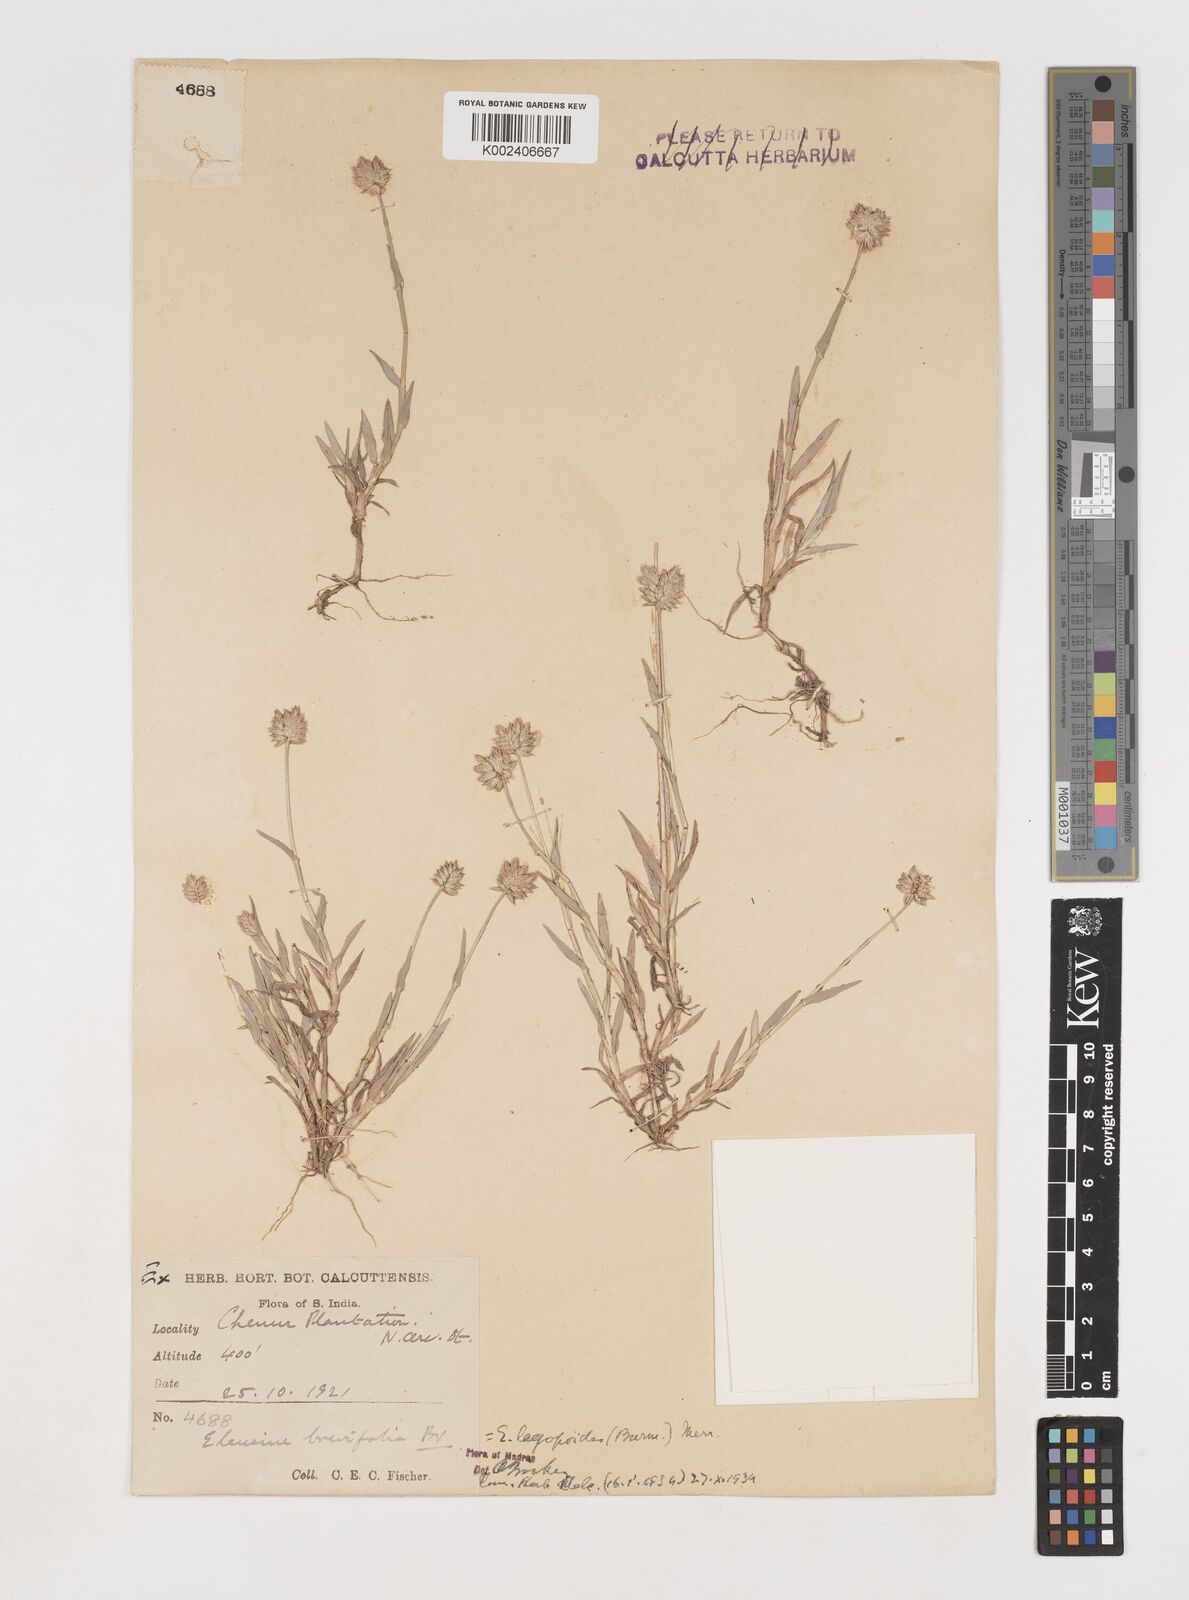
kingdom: Plantae
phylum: Tracheophyta
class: Liliopsida
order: Poales
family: Poaceae
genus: Coelachyrum
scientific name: Coelachyrum lagopoides
